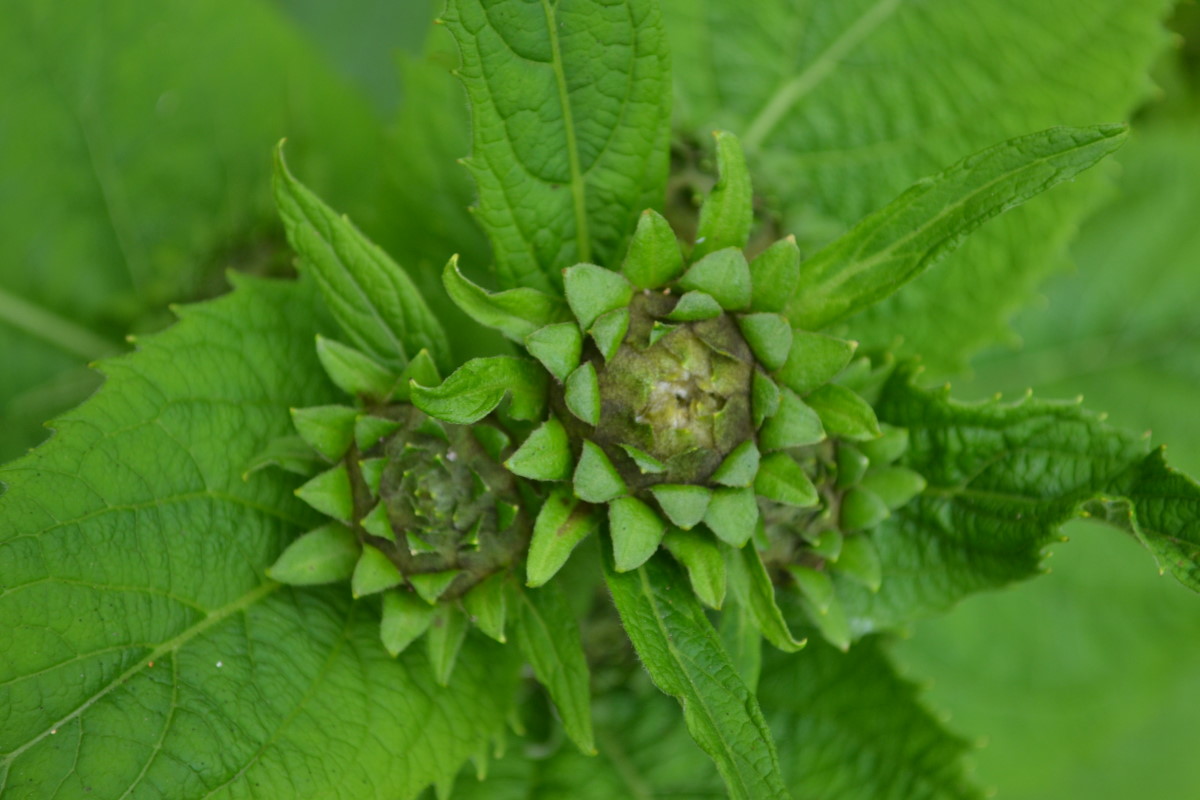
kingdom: Plantae
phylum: Tracheophyta
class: Magnoliopsida
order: Asterales
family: Asteraceae
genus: Telekia
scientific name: Telekia speciosa
